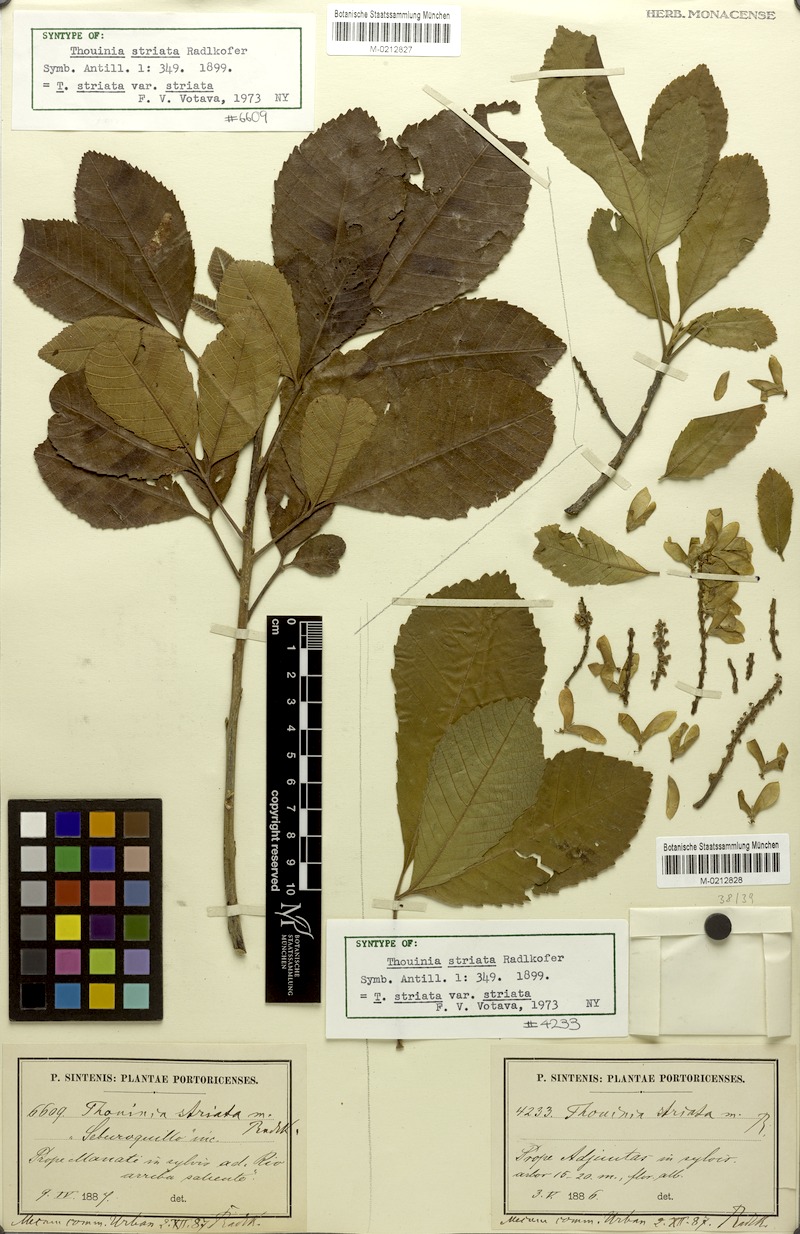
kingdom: Plantae
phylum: Tracheophyta
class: Magnoliopsida
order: Sapindales
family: Sapindaceae
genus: Thouinia
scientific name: Thouinia striata
